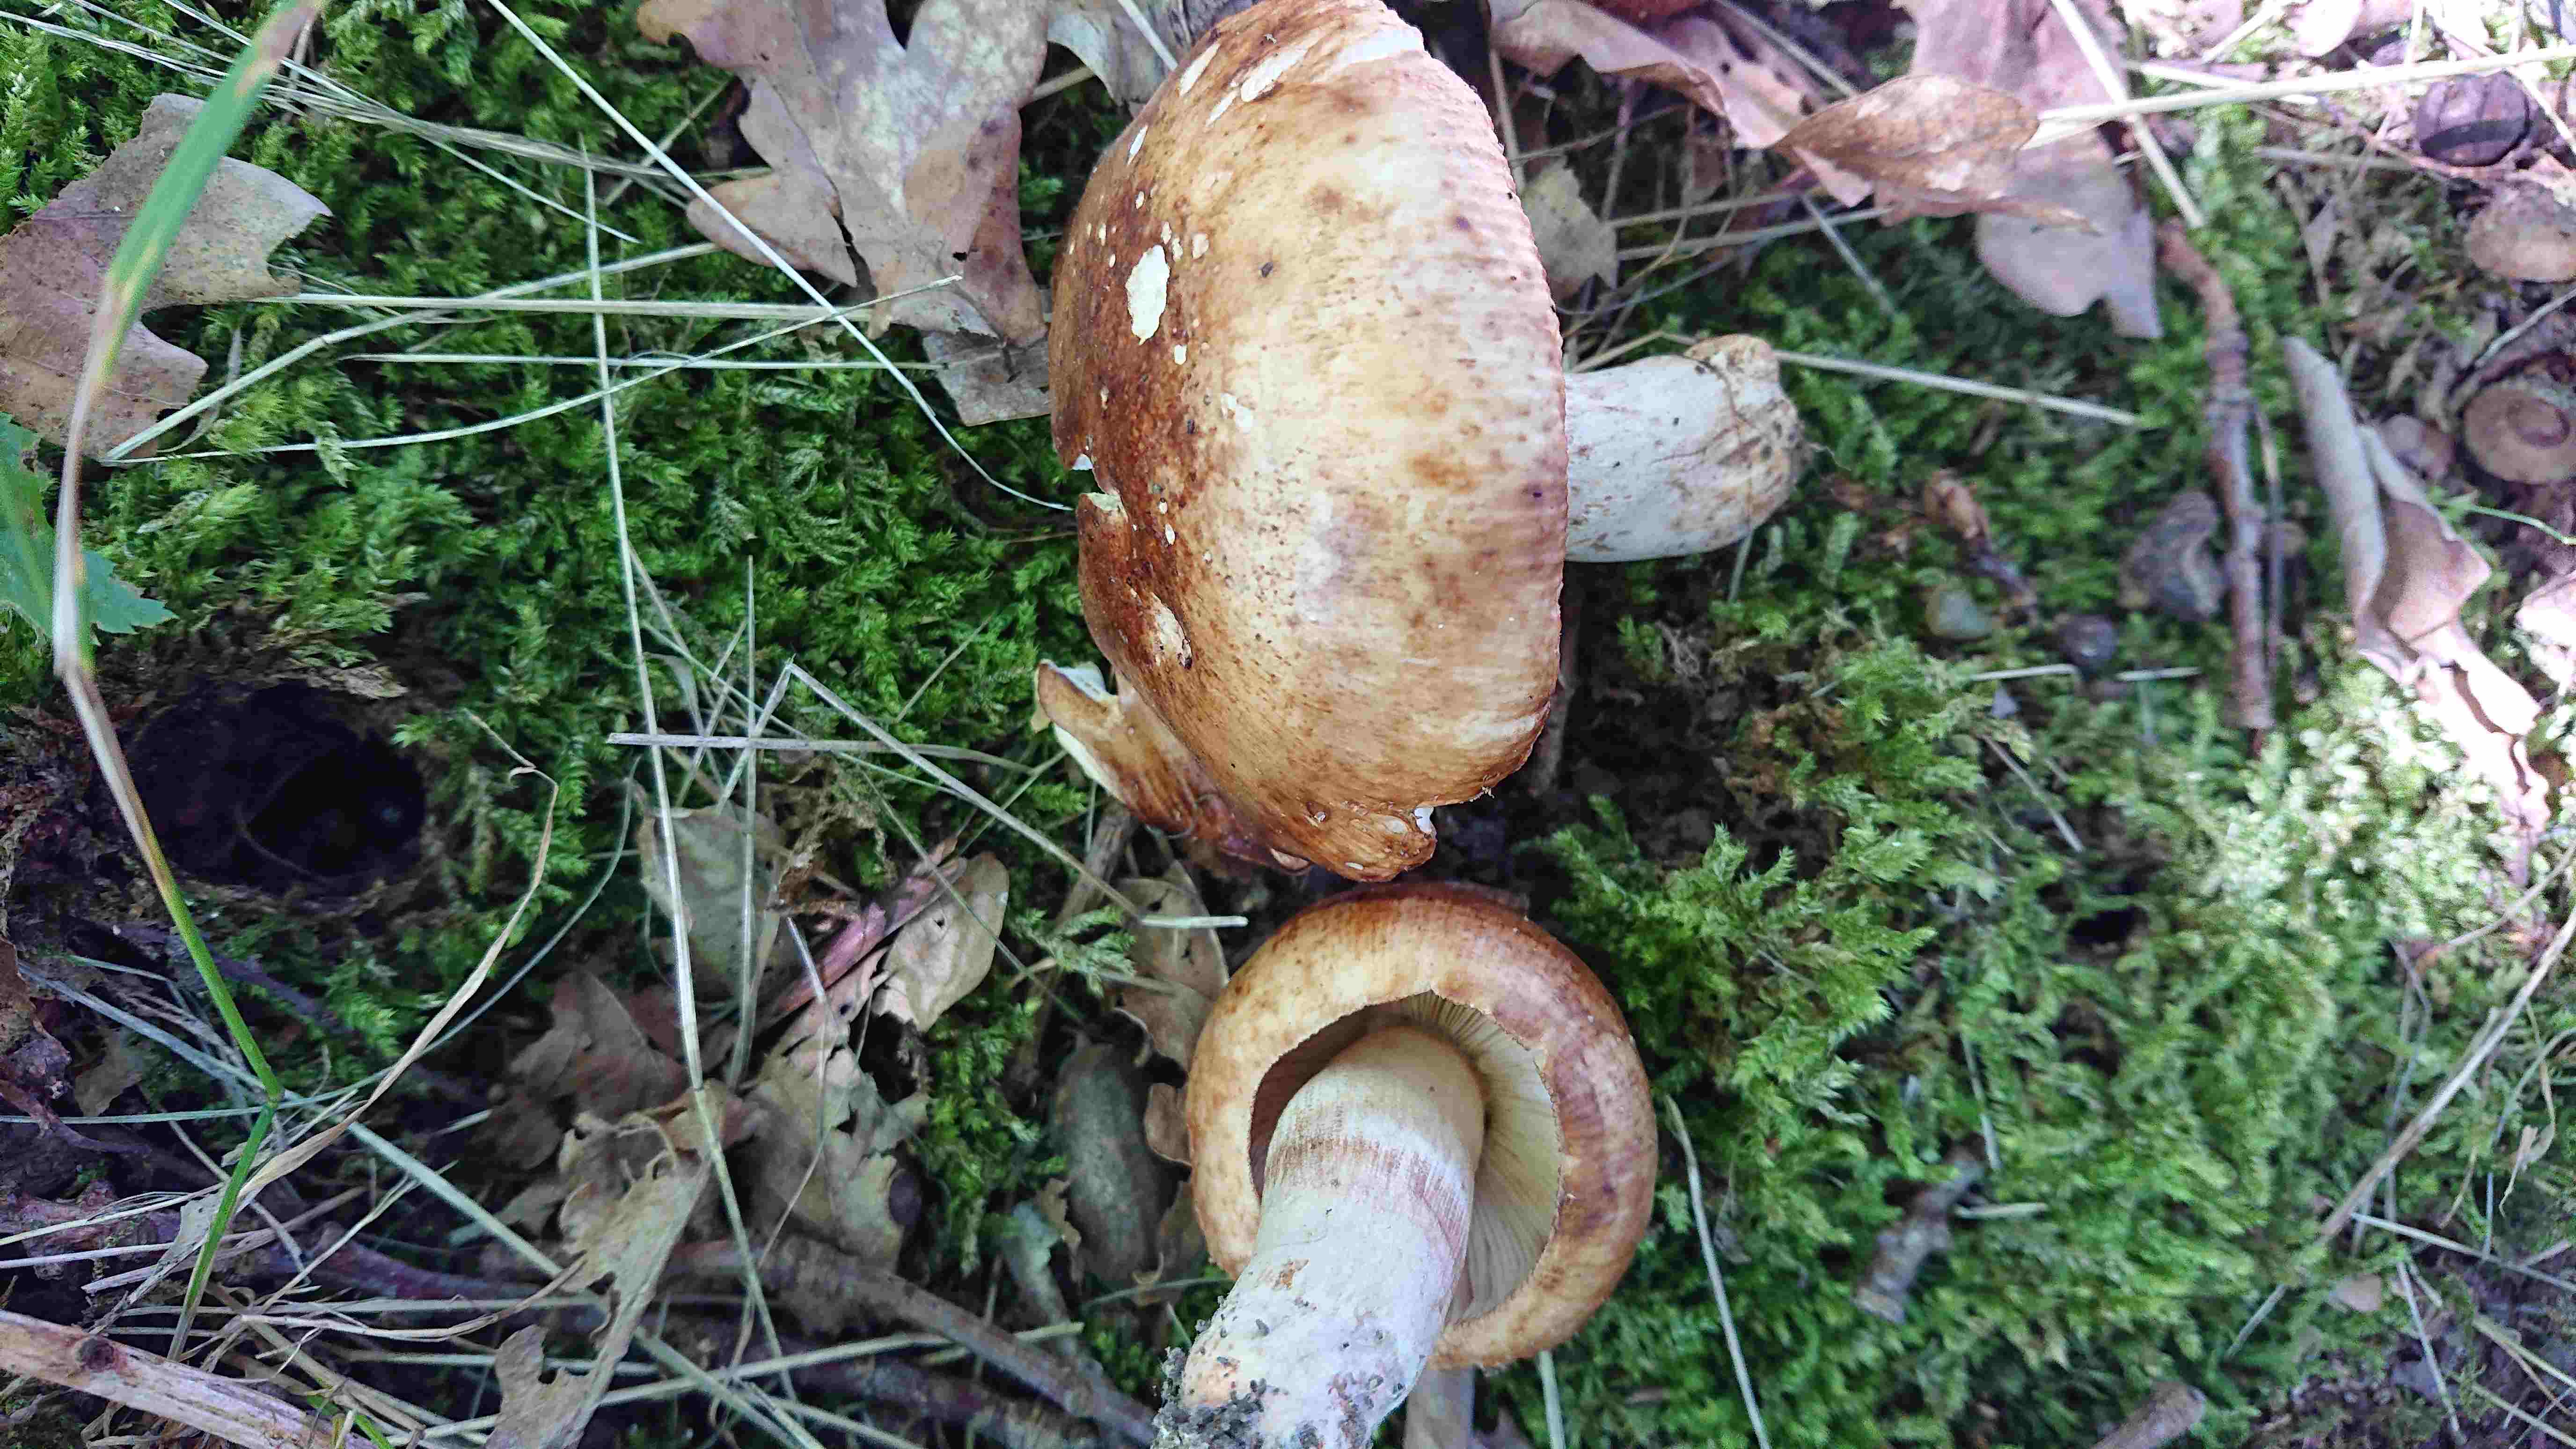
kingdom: Fungi
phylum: Basidiomycota
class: Agaricomycetes
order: Russulales
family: Russulaceae
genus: Russula
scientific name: Russula foetens
